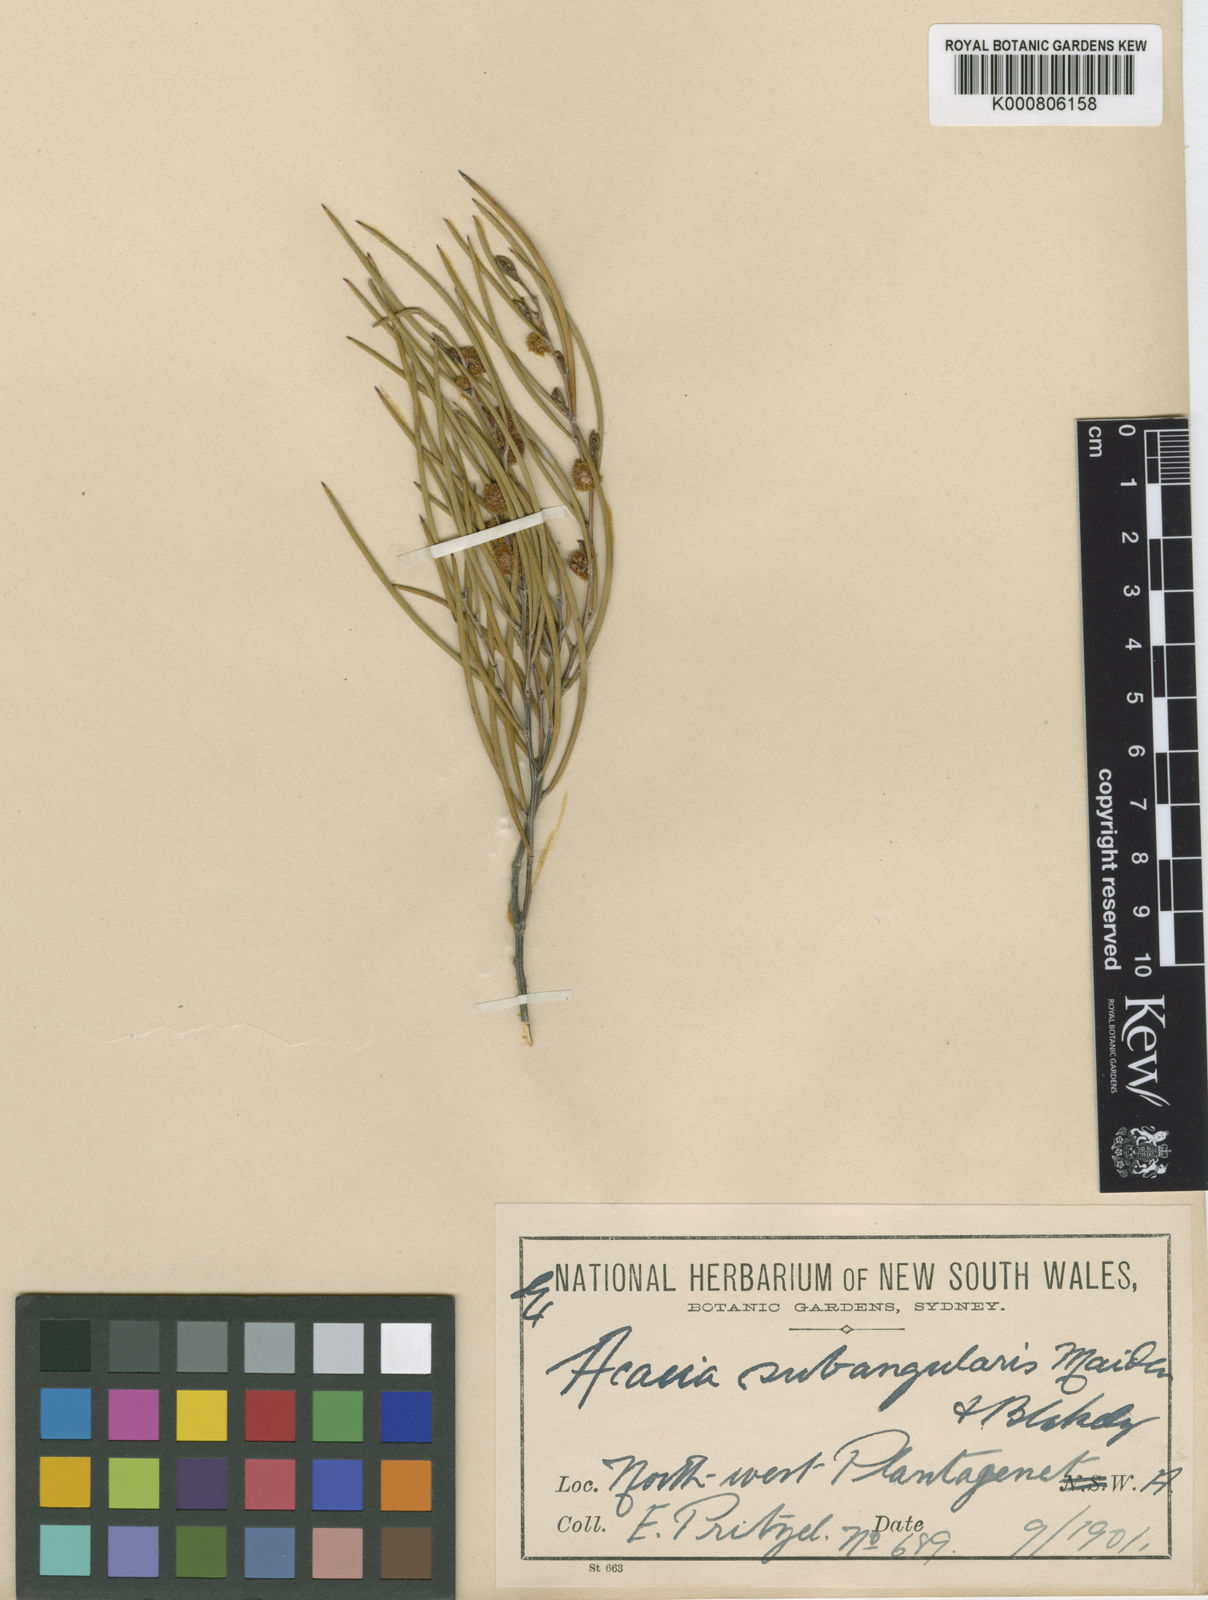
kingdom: Plantae
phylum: Tracheophyta
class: Magnoliopsida
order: Fabales
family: Fabaceae
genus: Acacia
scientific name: Acacia microneura
